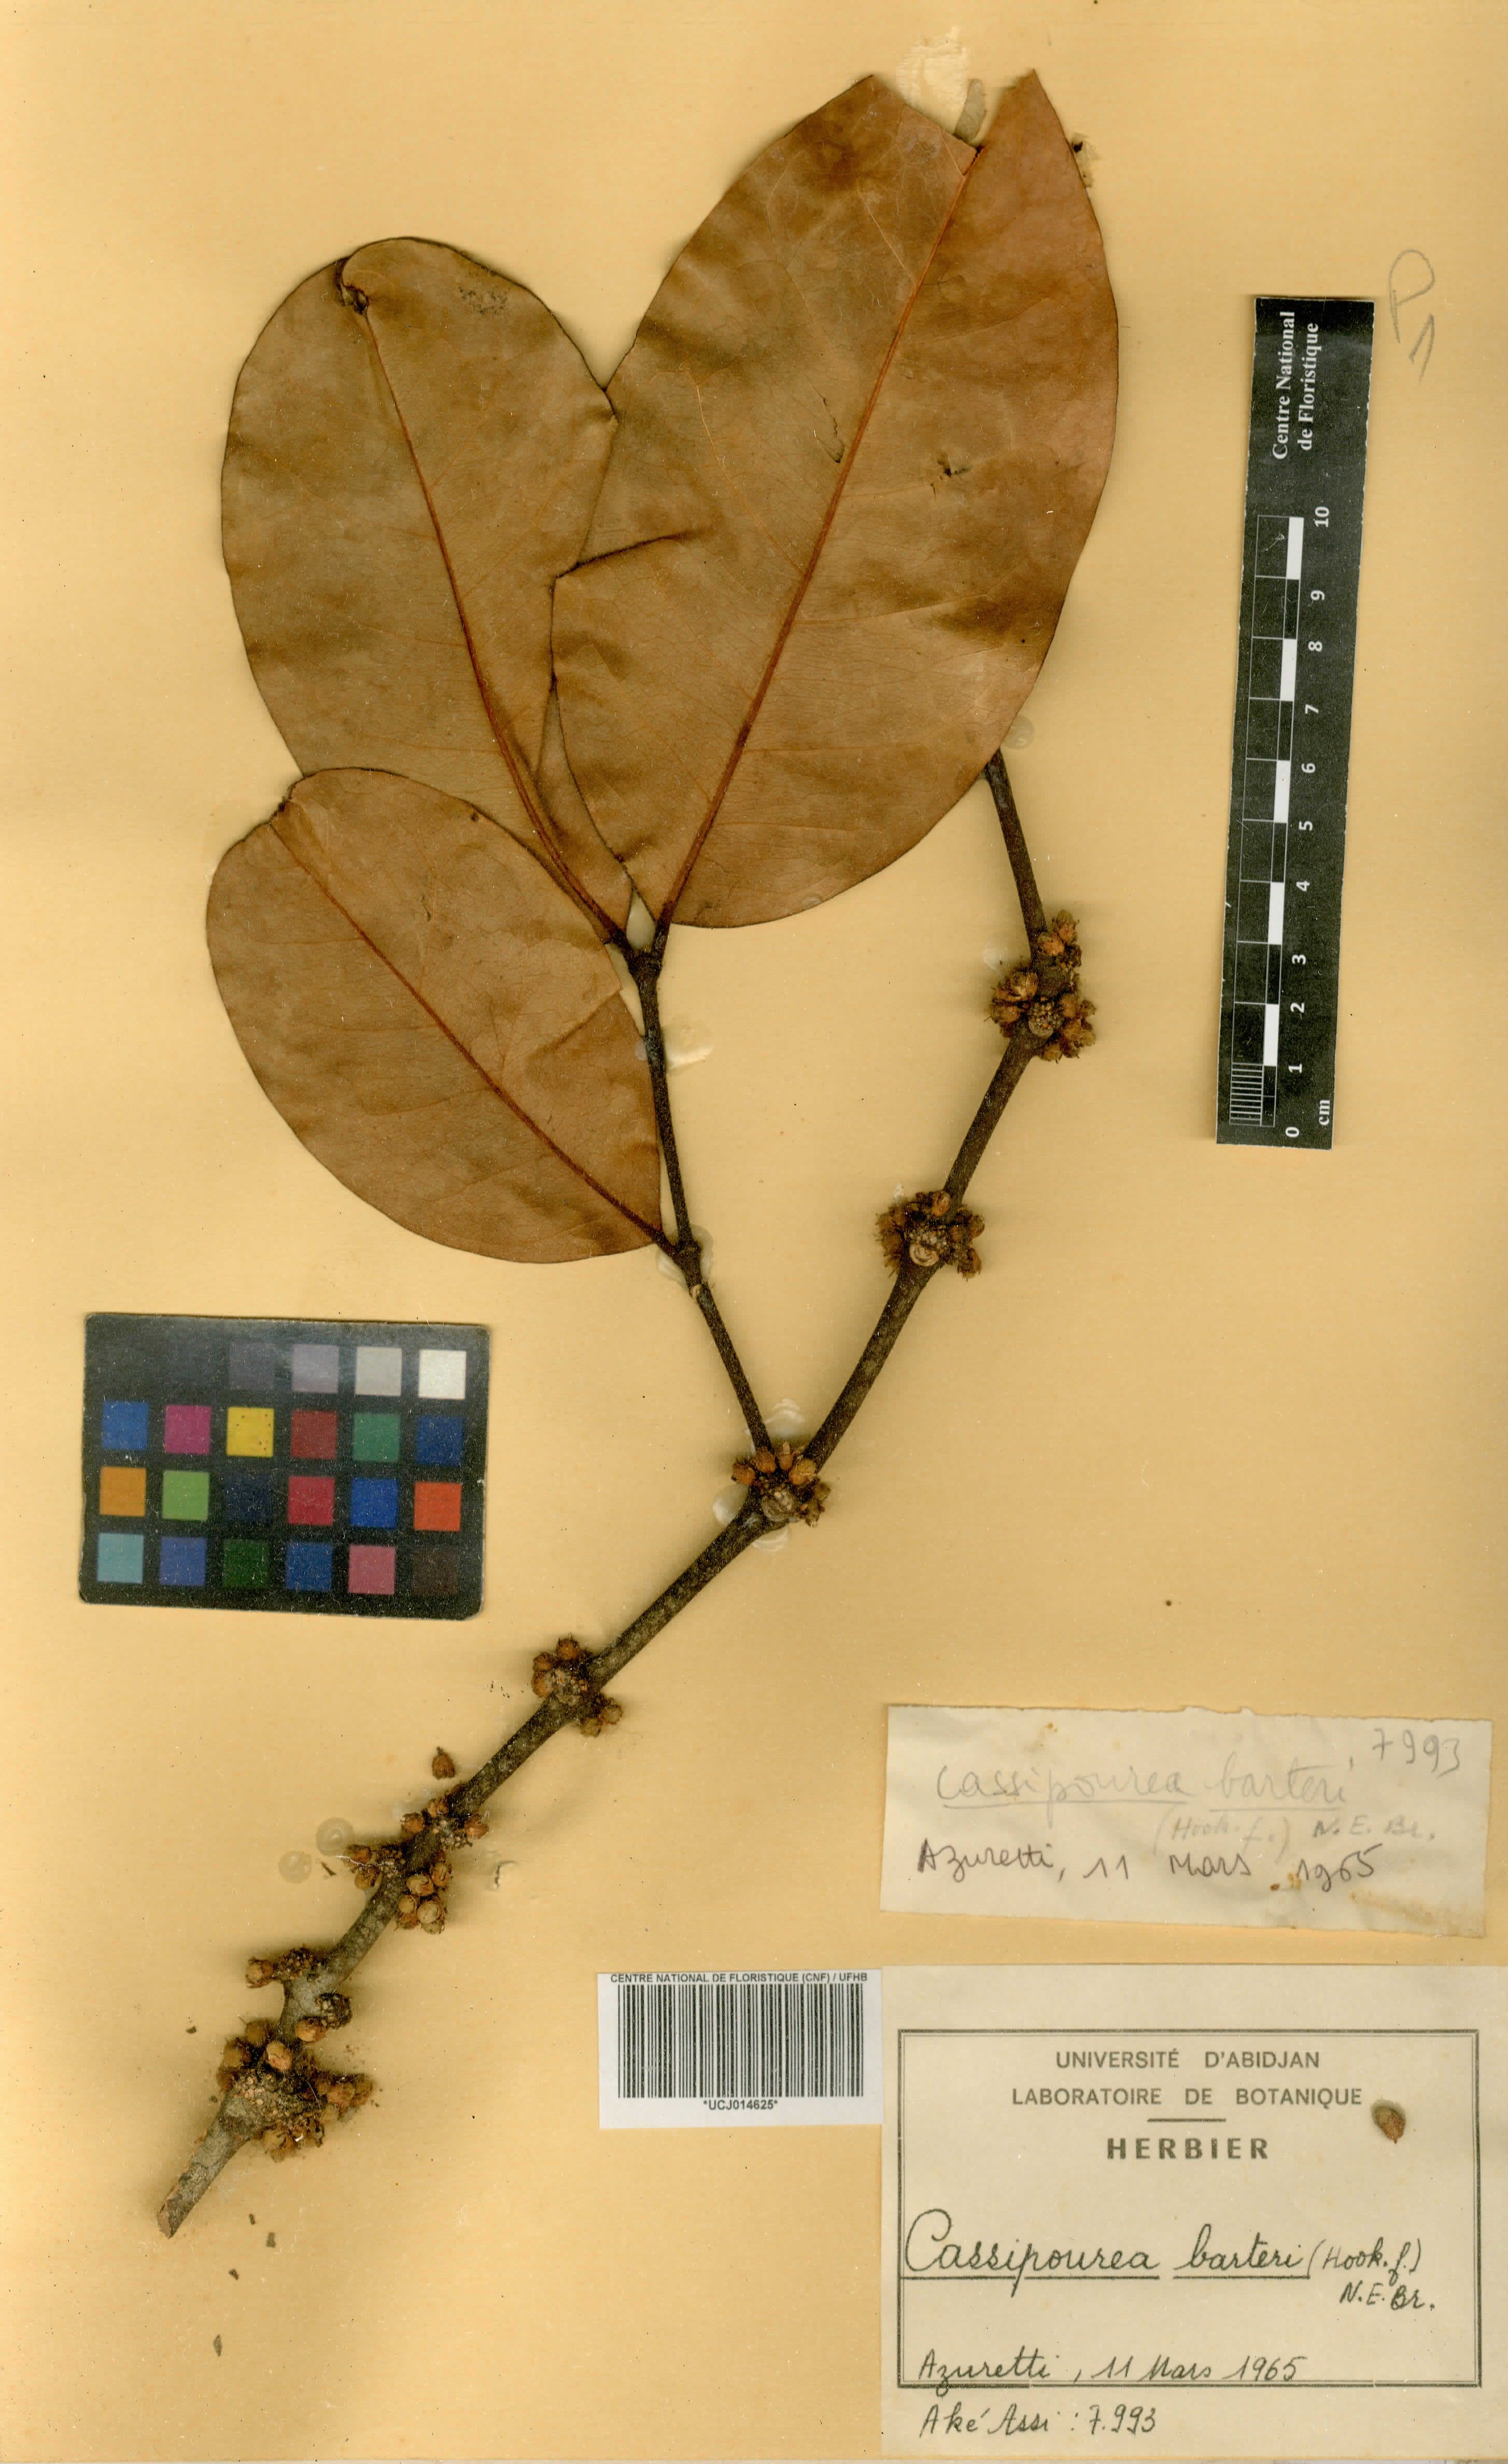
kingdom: Plantae
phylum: Tracheophyta
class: Magnoliopsida
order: Malpighiales
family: Rhizophoraceae
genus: Cassipourea
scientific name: Cassipourea barteri
